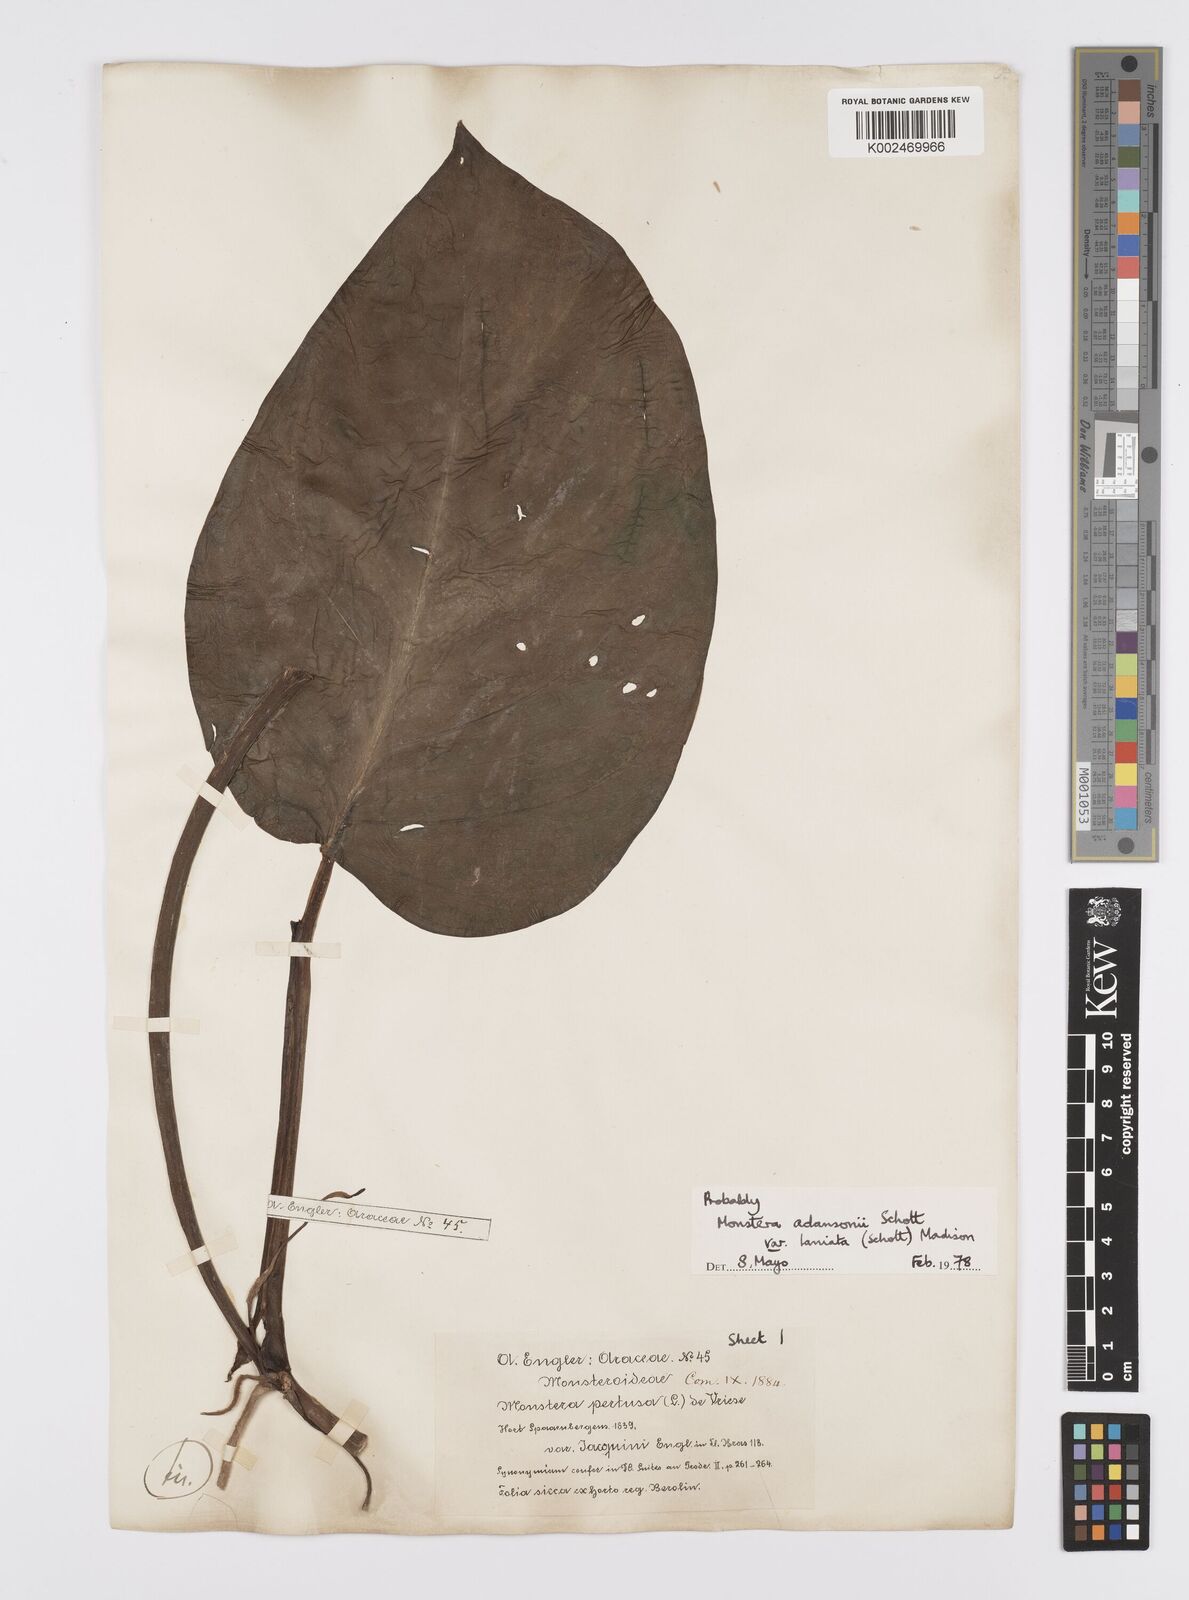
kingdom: Plantae
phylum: Tracheophyta
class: Liliopsida
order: Alismatales
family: Araceae
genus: Monstera
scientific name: Monstera adansonii
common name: Tarovine
